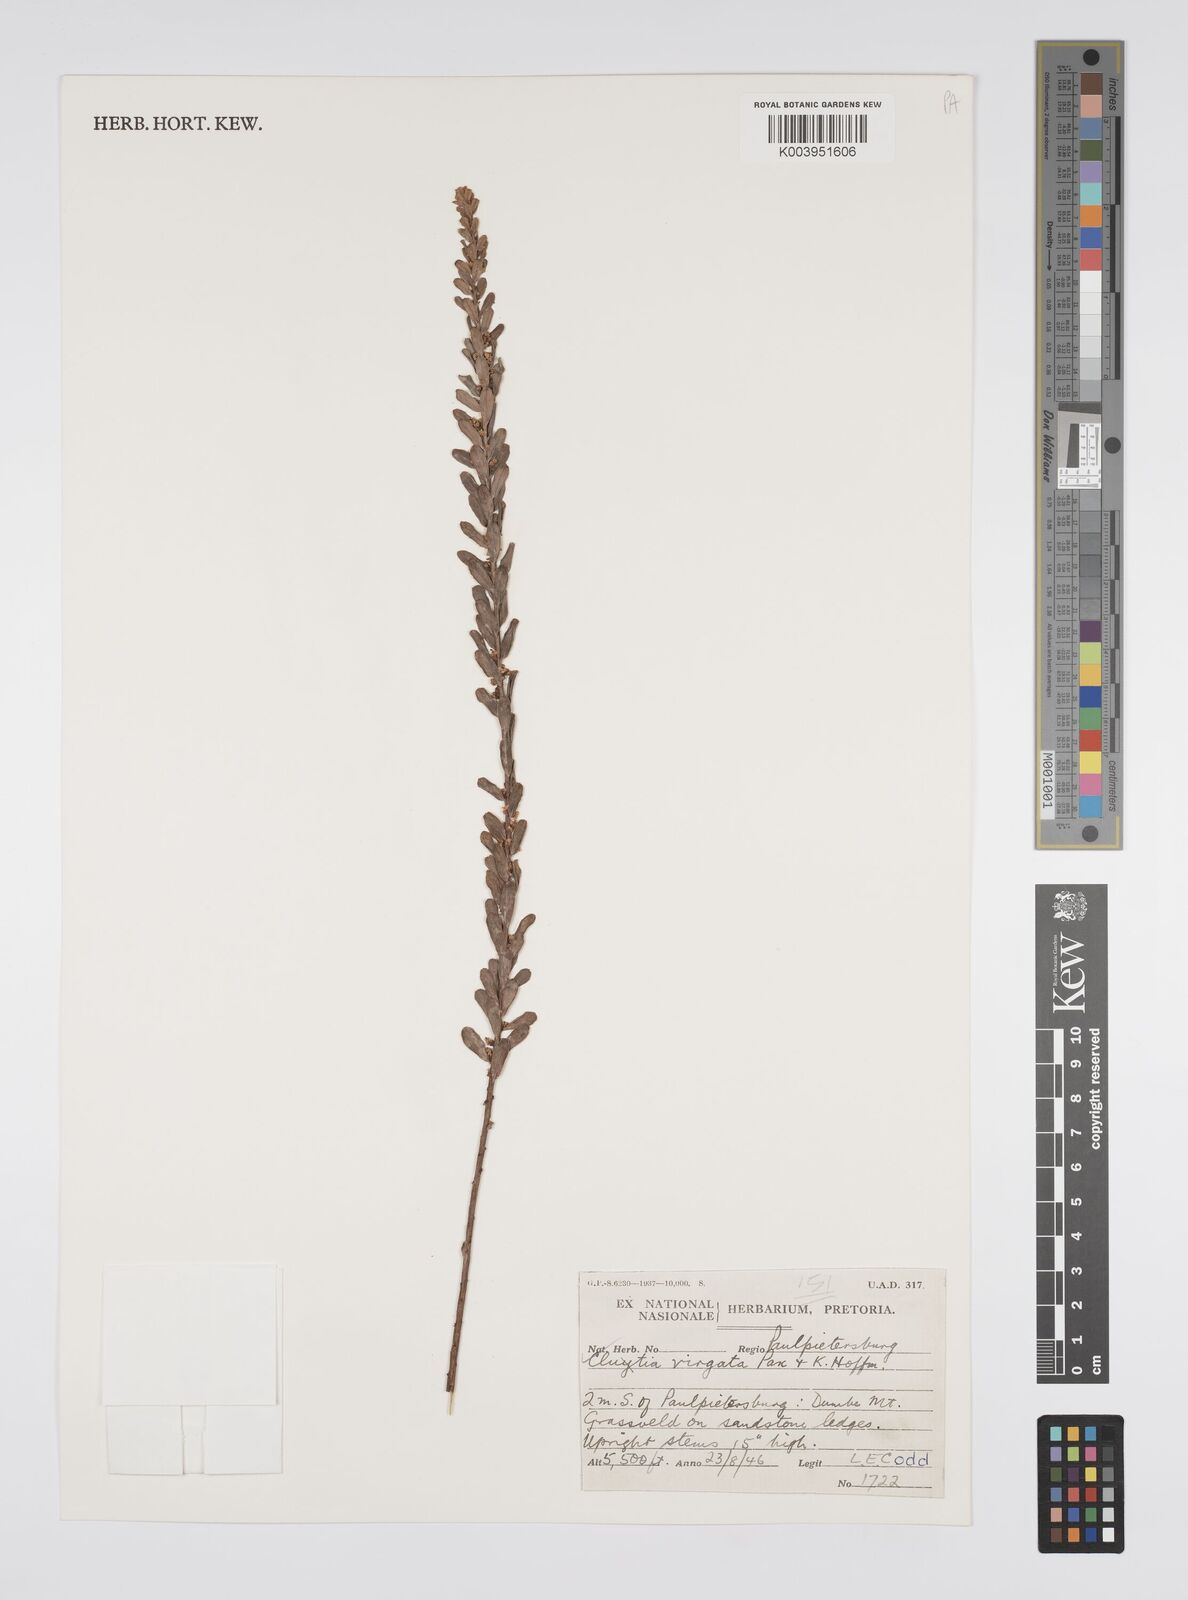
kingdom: Plantae
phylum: Tracheophyta
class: Magnoliopsida
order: Malpighiales
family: Peraceae
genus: Clutia
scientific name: Clutia virgata
